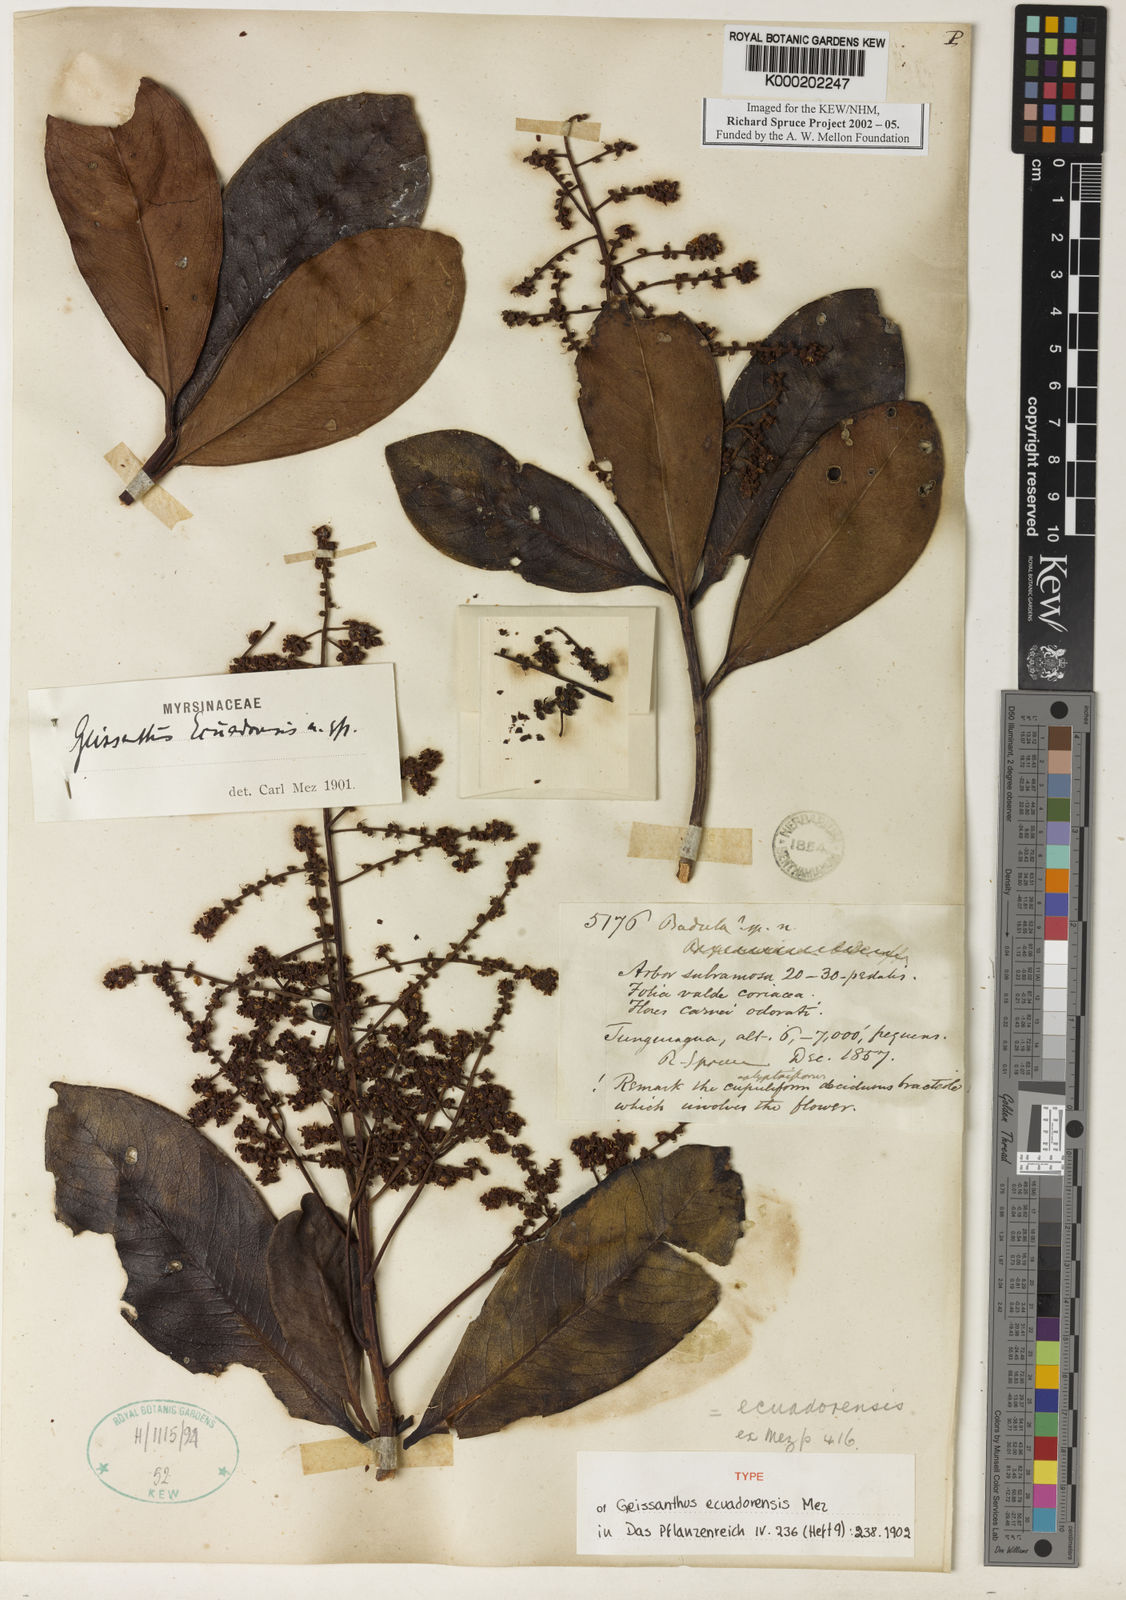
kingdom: Plantae
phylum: Tracheophyta
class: Magnoliopsida
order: Ericales
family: Primulaceae
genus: Geissanthus
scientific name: Geissanthus ecuadorensis
